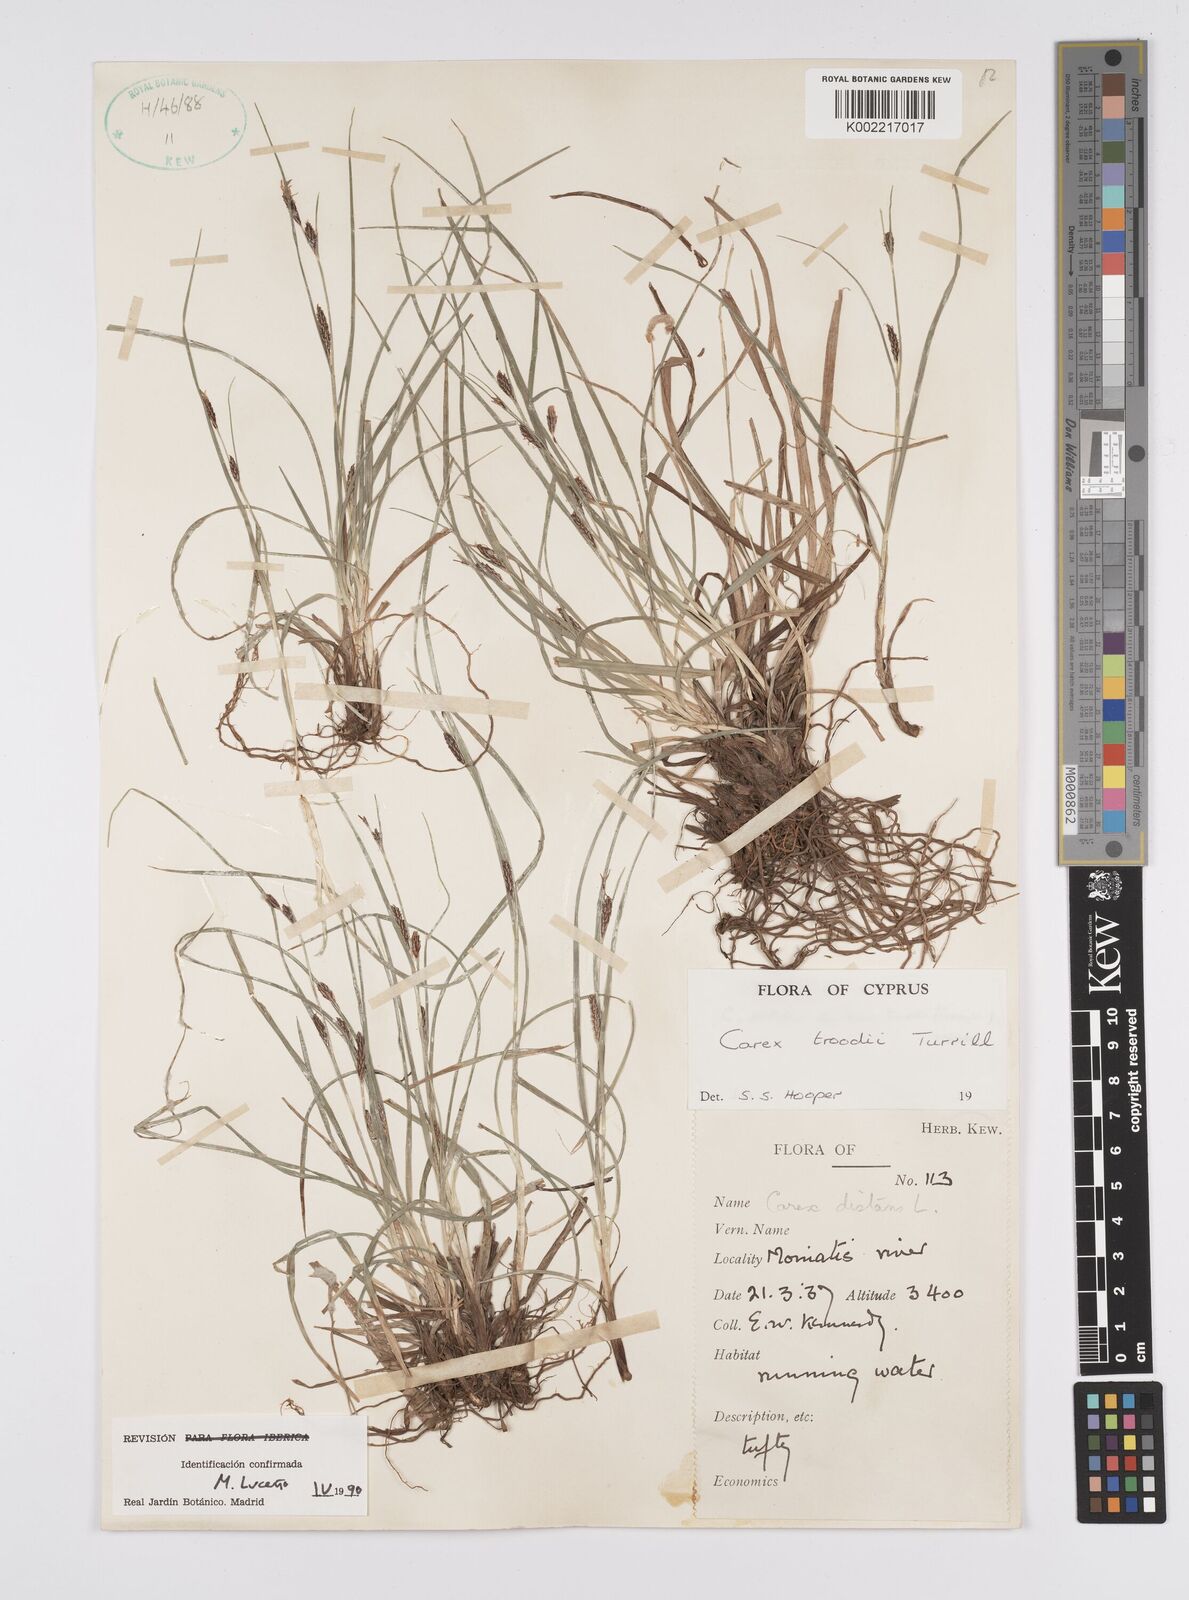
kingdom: Plantae
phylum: Tracheophyta
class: Liliopsida
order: Poales
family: Cyperaceae
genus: Carex
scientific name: Carex troodi
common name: Troodos mount sedge
